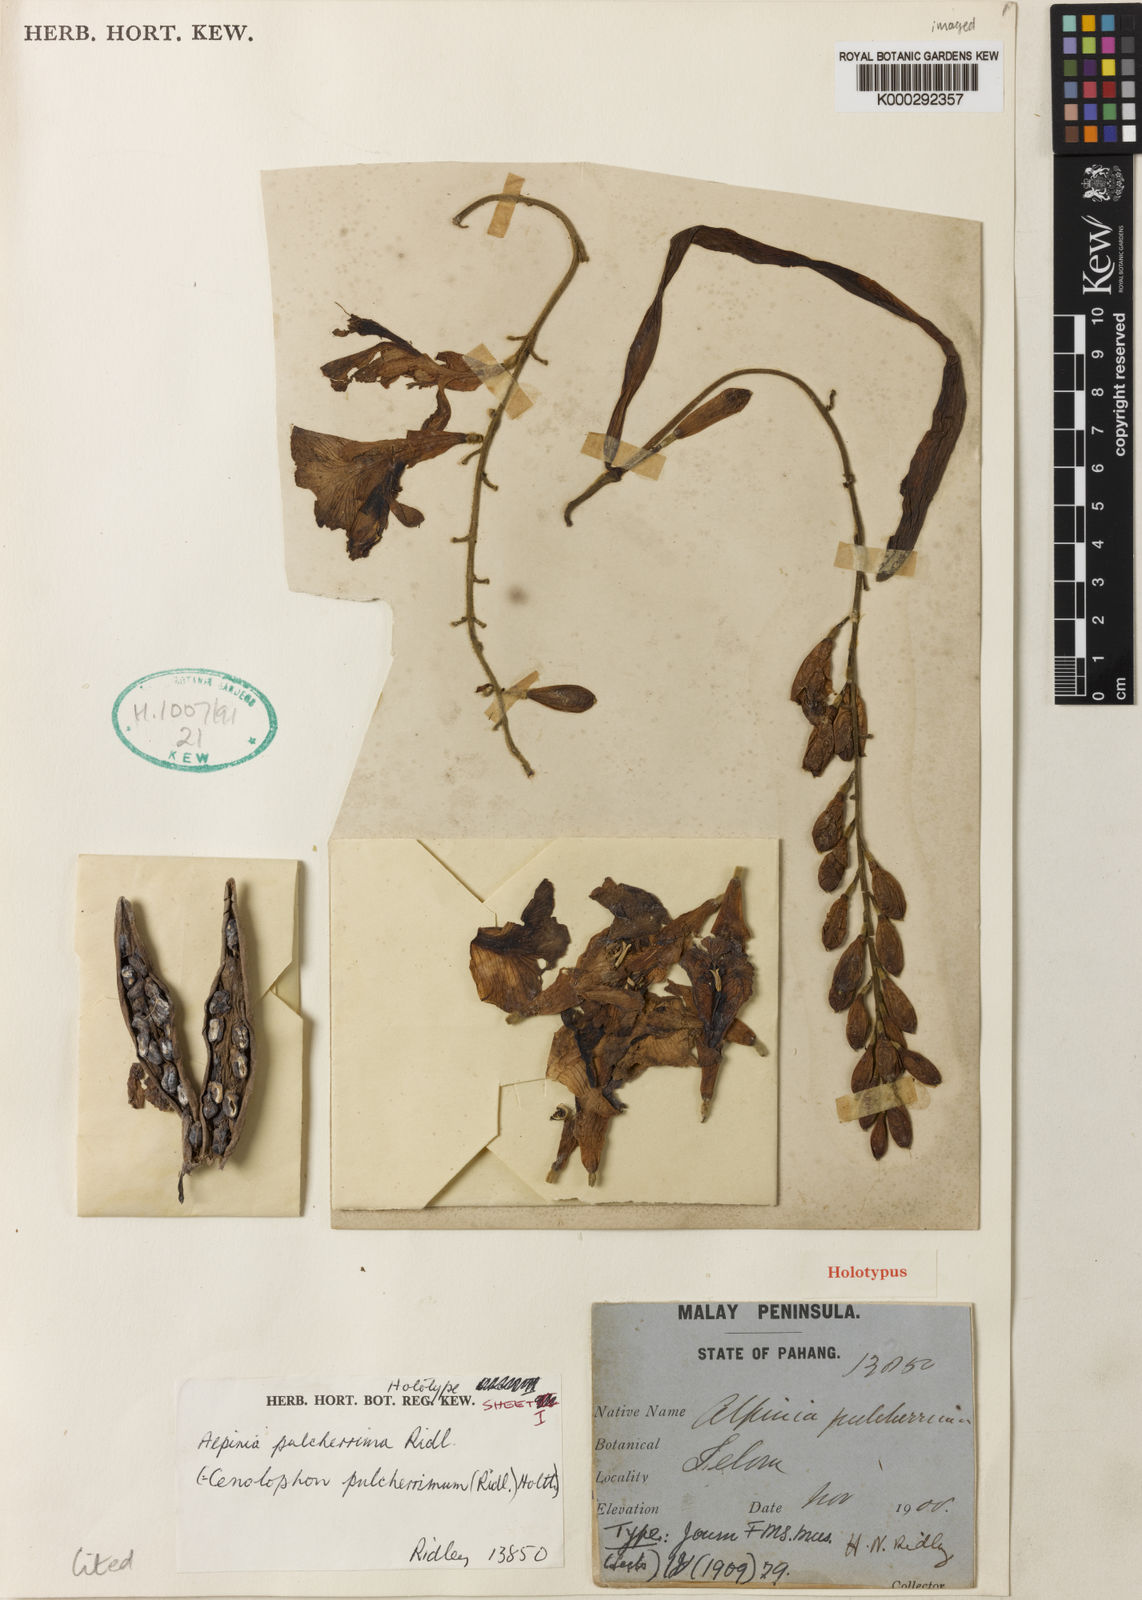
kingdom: Plantae
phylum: Tracheophyta
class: Liliopsida
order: Zingiberales
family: Zingiberaceae
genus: Alpinia
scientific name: Alpinia pulcherrima
